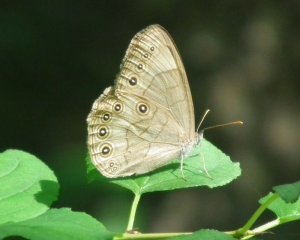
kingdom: Animalia
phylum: Arthropoda
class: Insecta
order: Lepidoptera
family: Nymphalidae
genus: Lethe
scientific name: Lethe eurydice
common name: Eyed Brown
